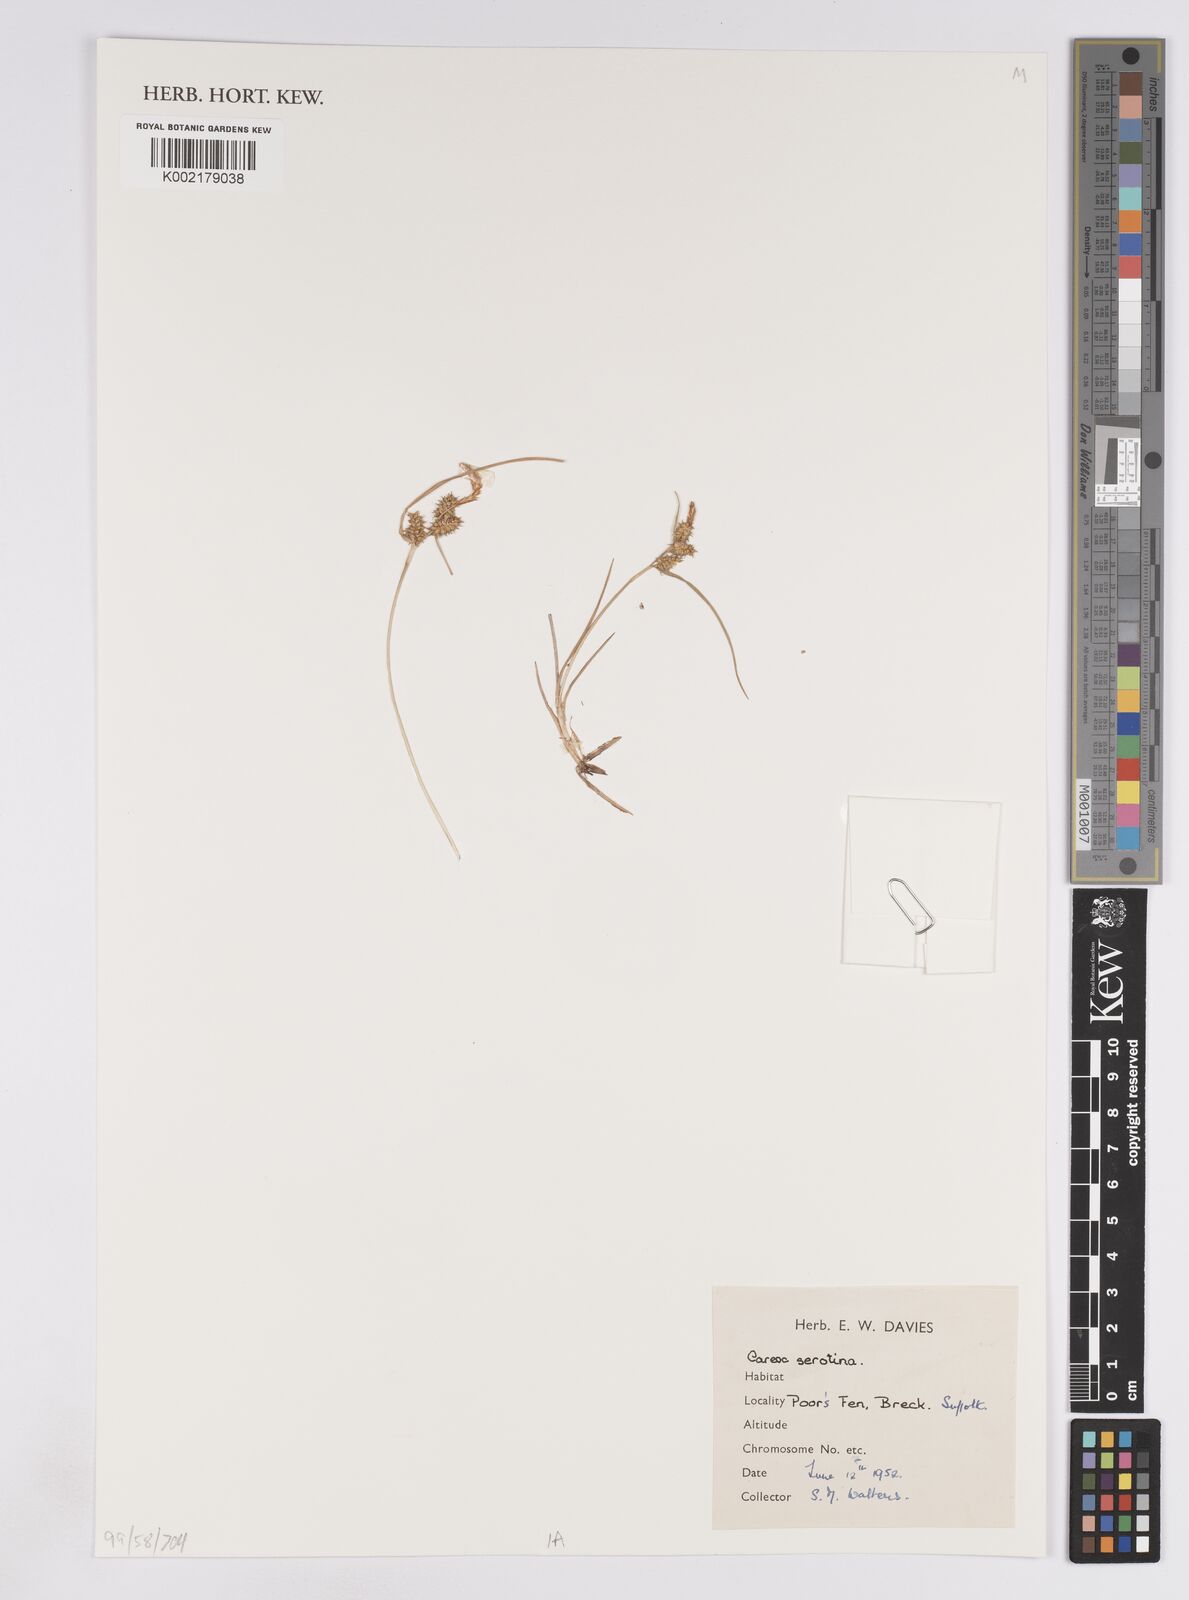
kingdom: Plantae
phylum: Tracheophyta
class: Liliopsida
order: Poales
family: Cyperaceae
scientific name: Cyperaceae
